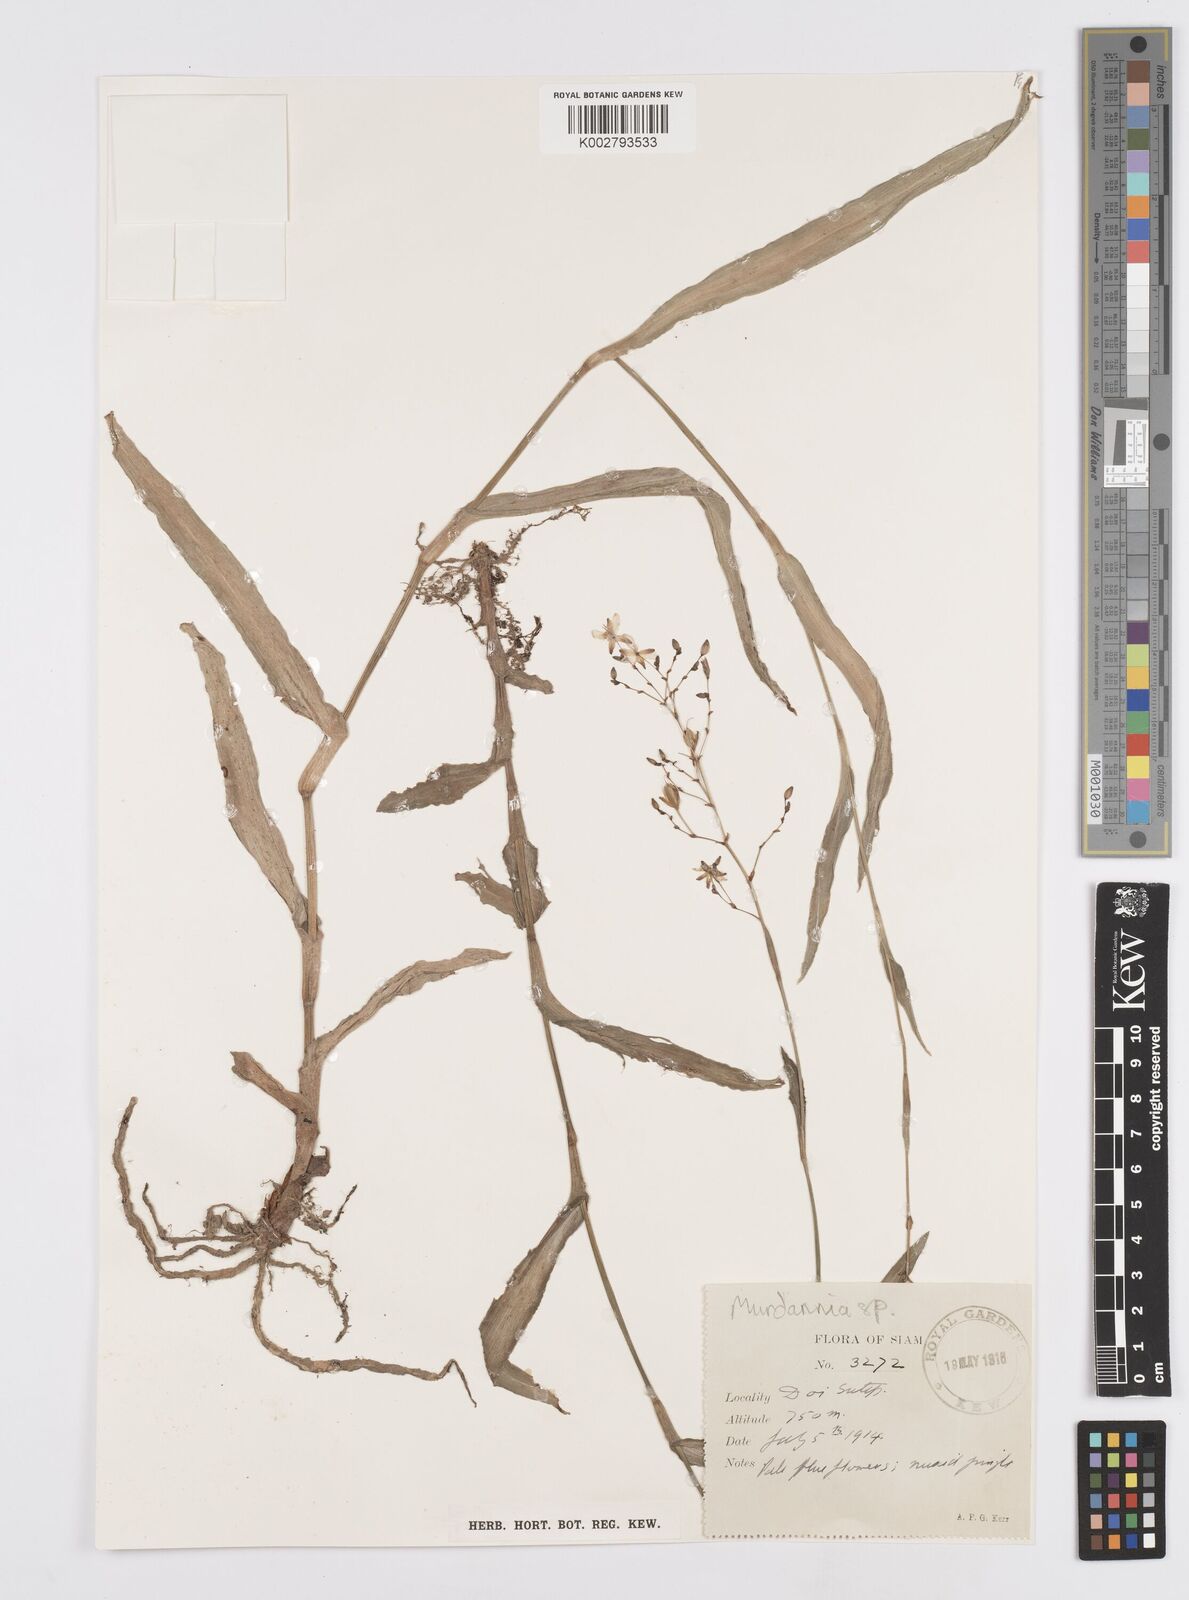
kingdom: Plantae
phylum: Tracheophyta
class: Liliopsida
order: Commelinales
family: Commelinaceae
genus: Murdannia
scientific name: Murdannia
